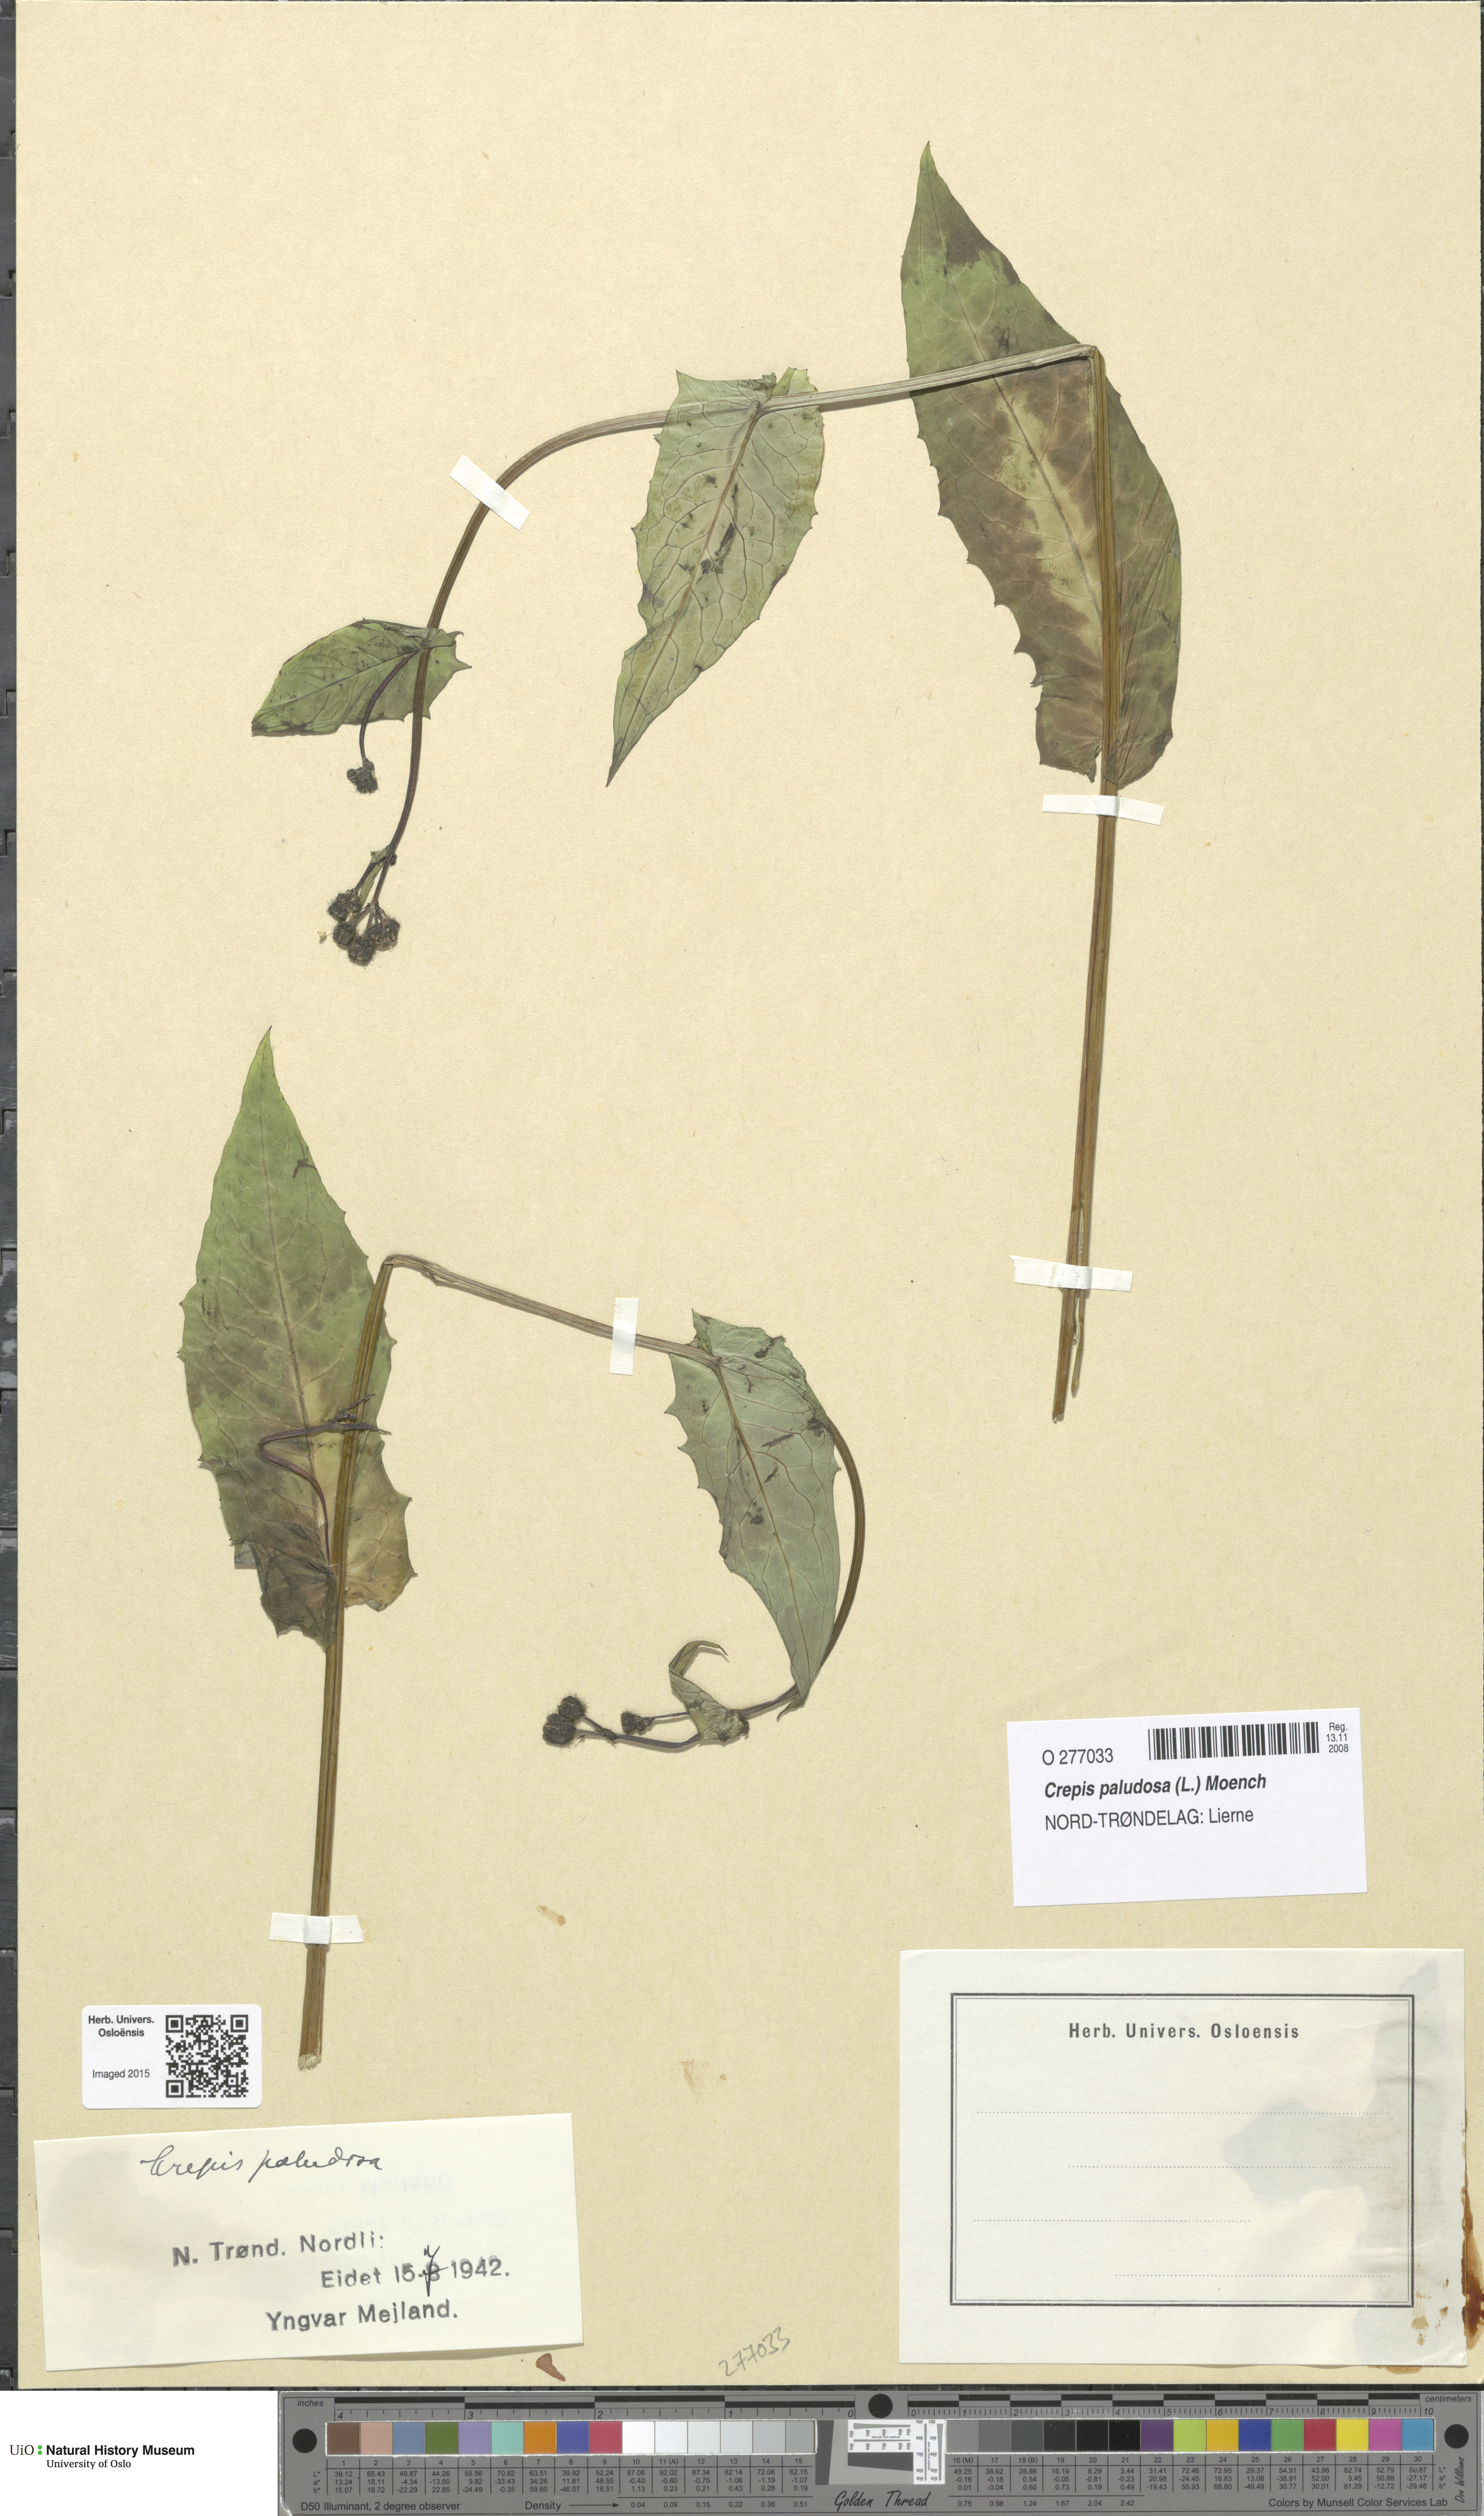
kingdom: Plantae
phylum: Tracheophyta
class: Magnoliopsida
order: Asterales
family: Asteraceae
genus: Crepis
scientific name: Crepis paludosa
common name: Marsh hawk's-beard
